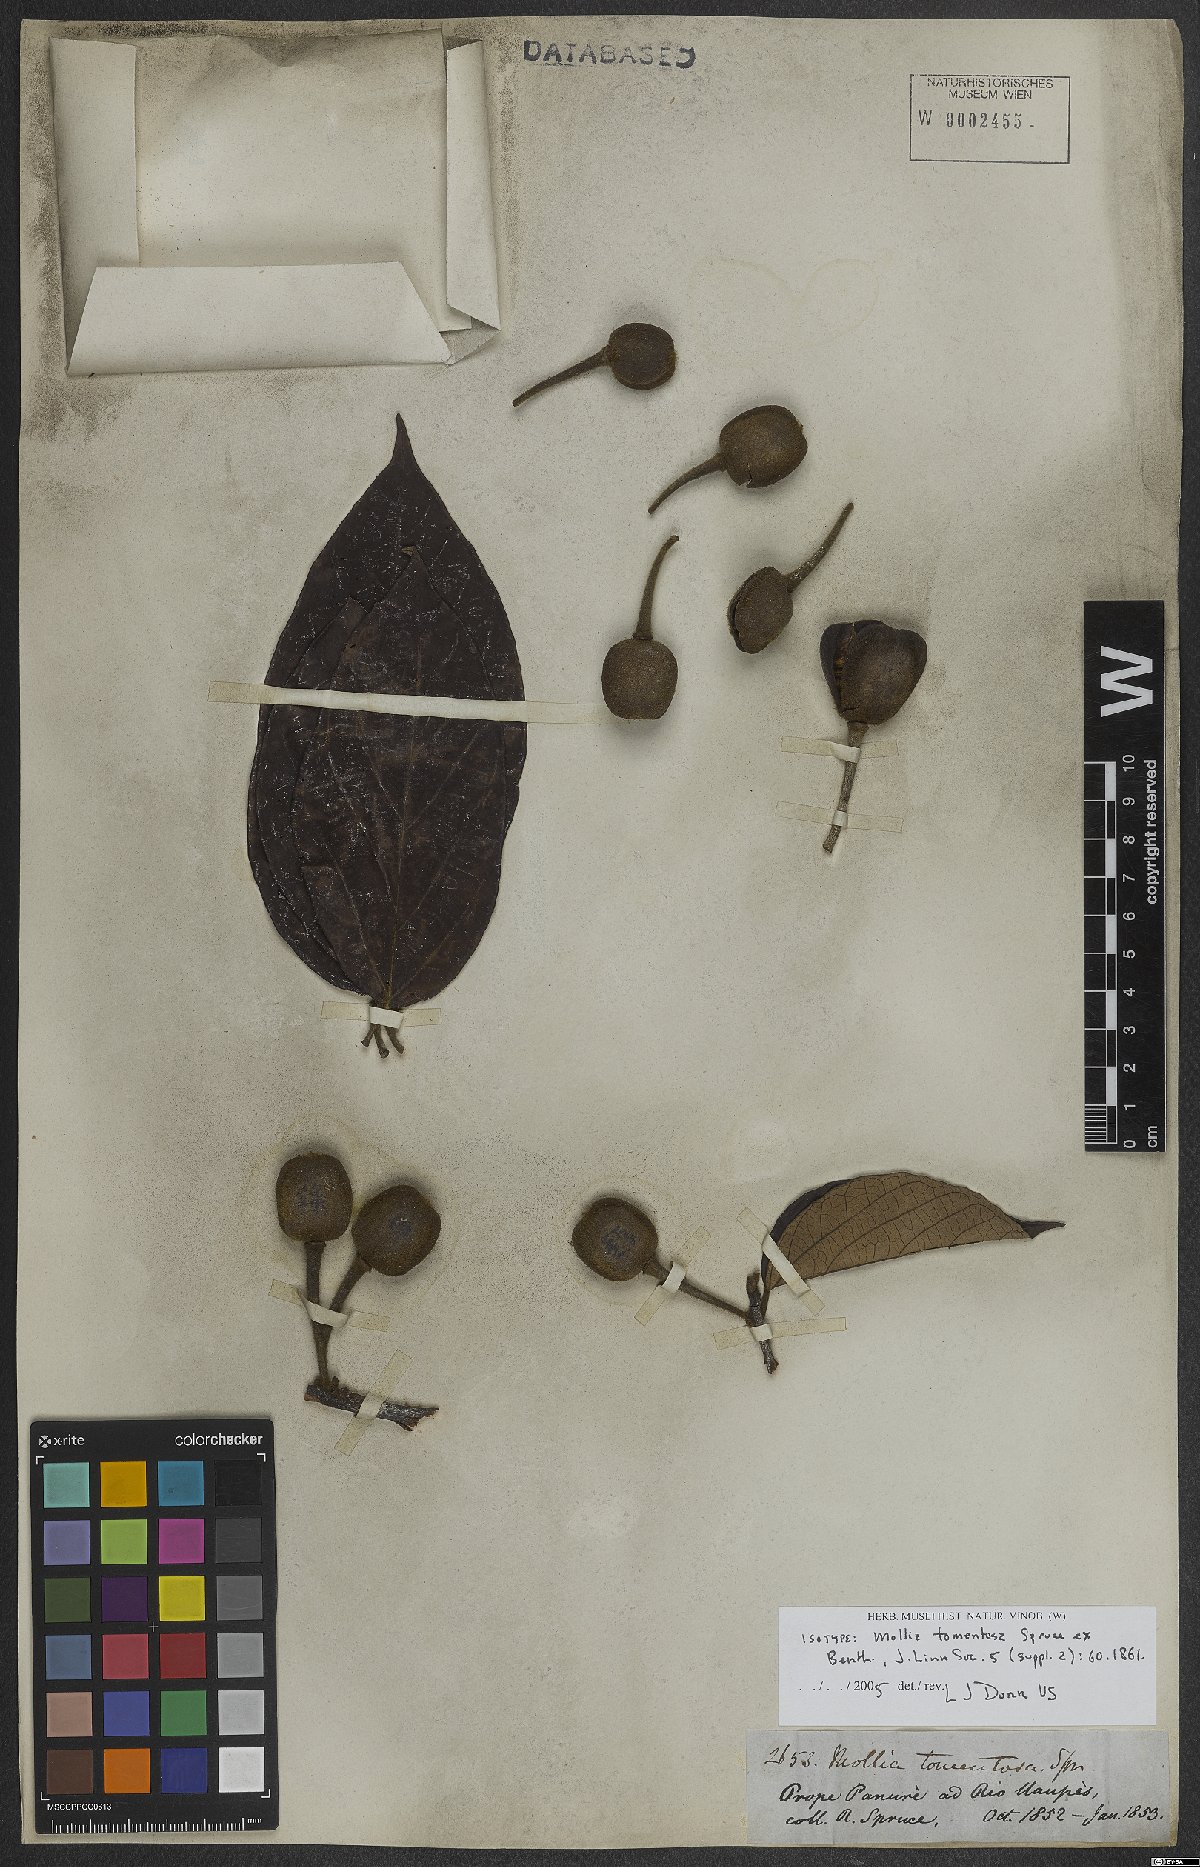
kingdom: Plantae
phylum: Tracheophyta
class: Magnoliopsida
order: Malvales
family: Malvaceae
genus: Mollia
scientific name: Mollia tomentosa
